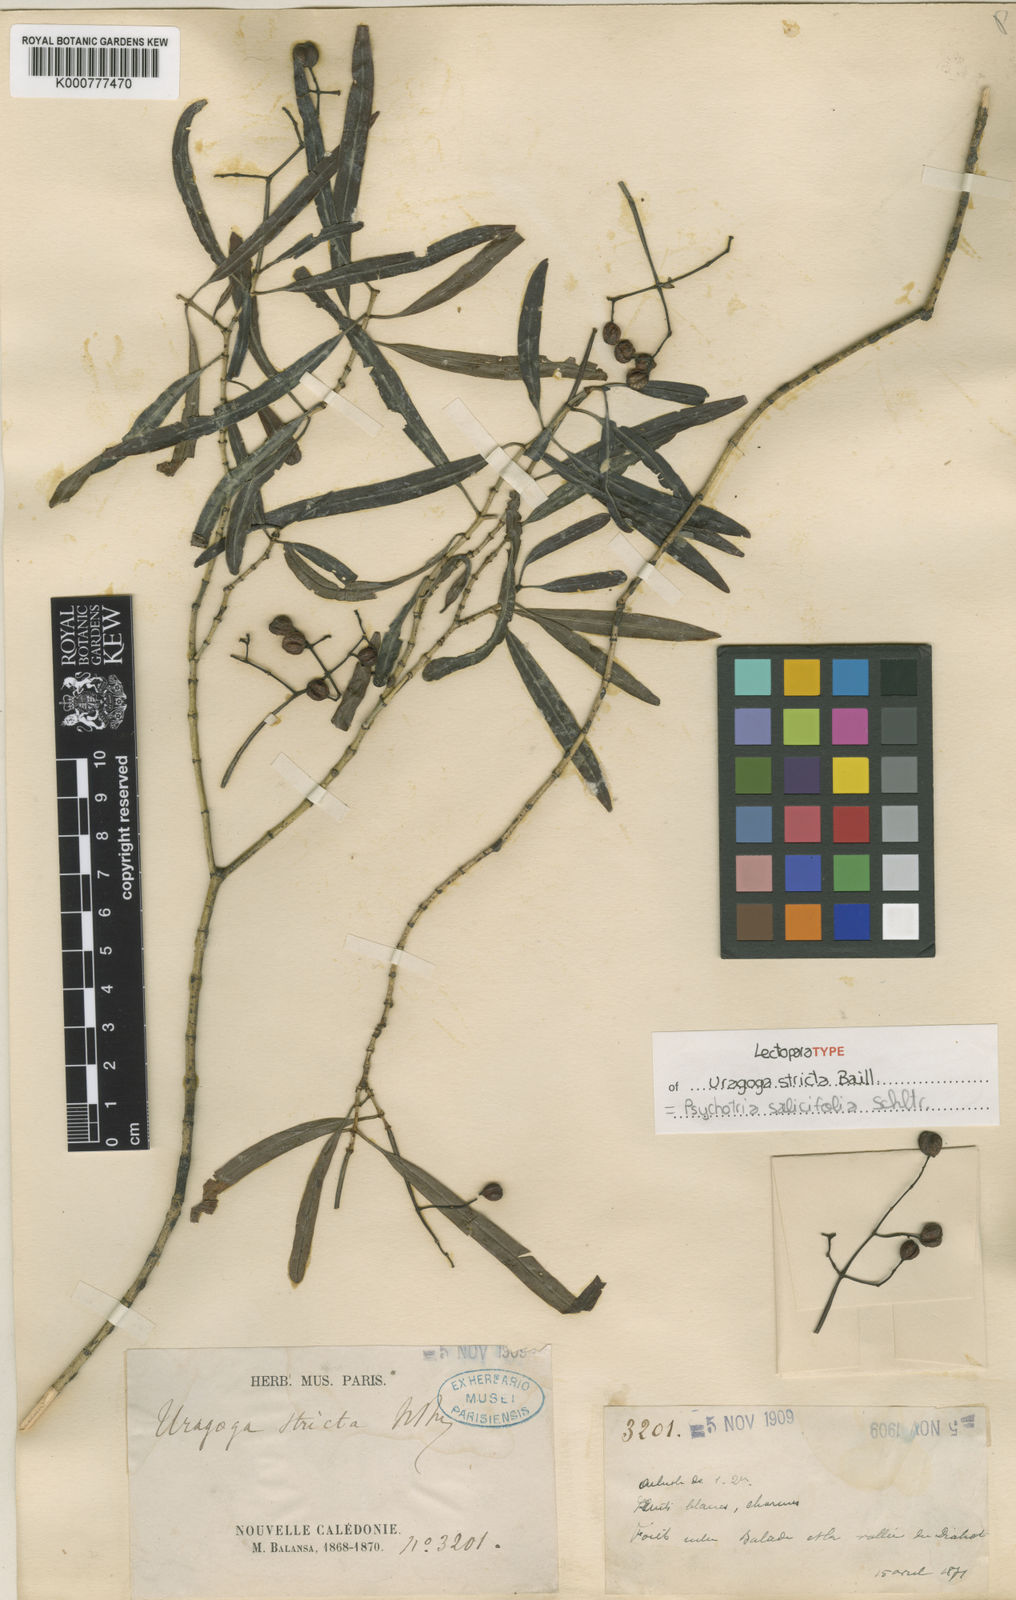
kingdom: Plantae
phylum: Tracheophyta
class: Magnoliopsida
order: Gentianales
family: Rubiaceae
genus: Psychotria
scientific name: Psychotria stricta
